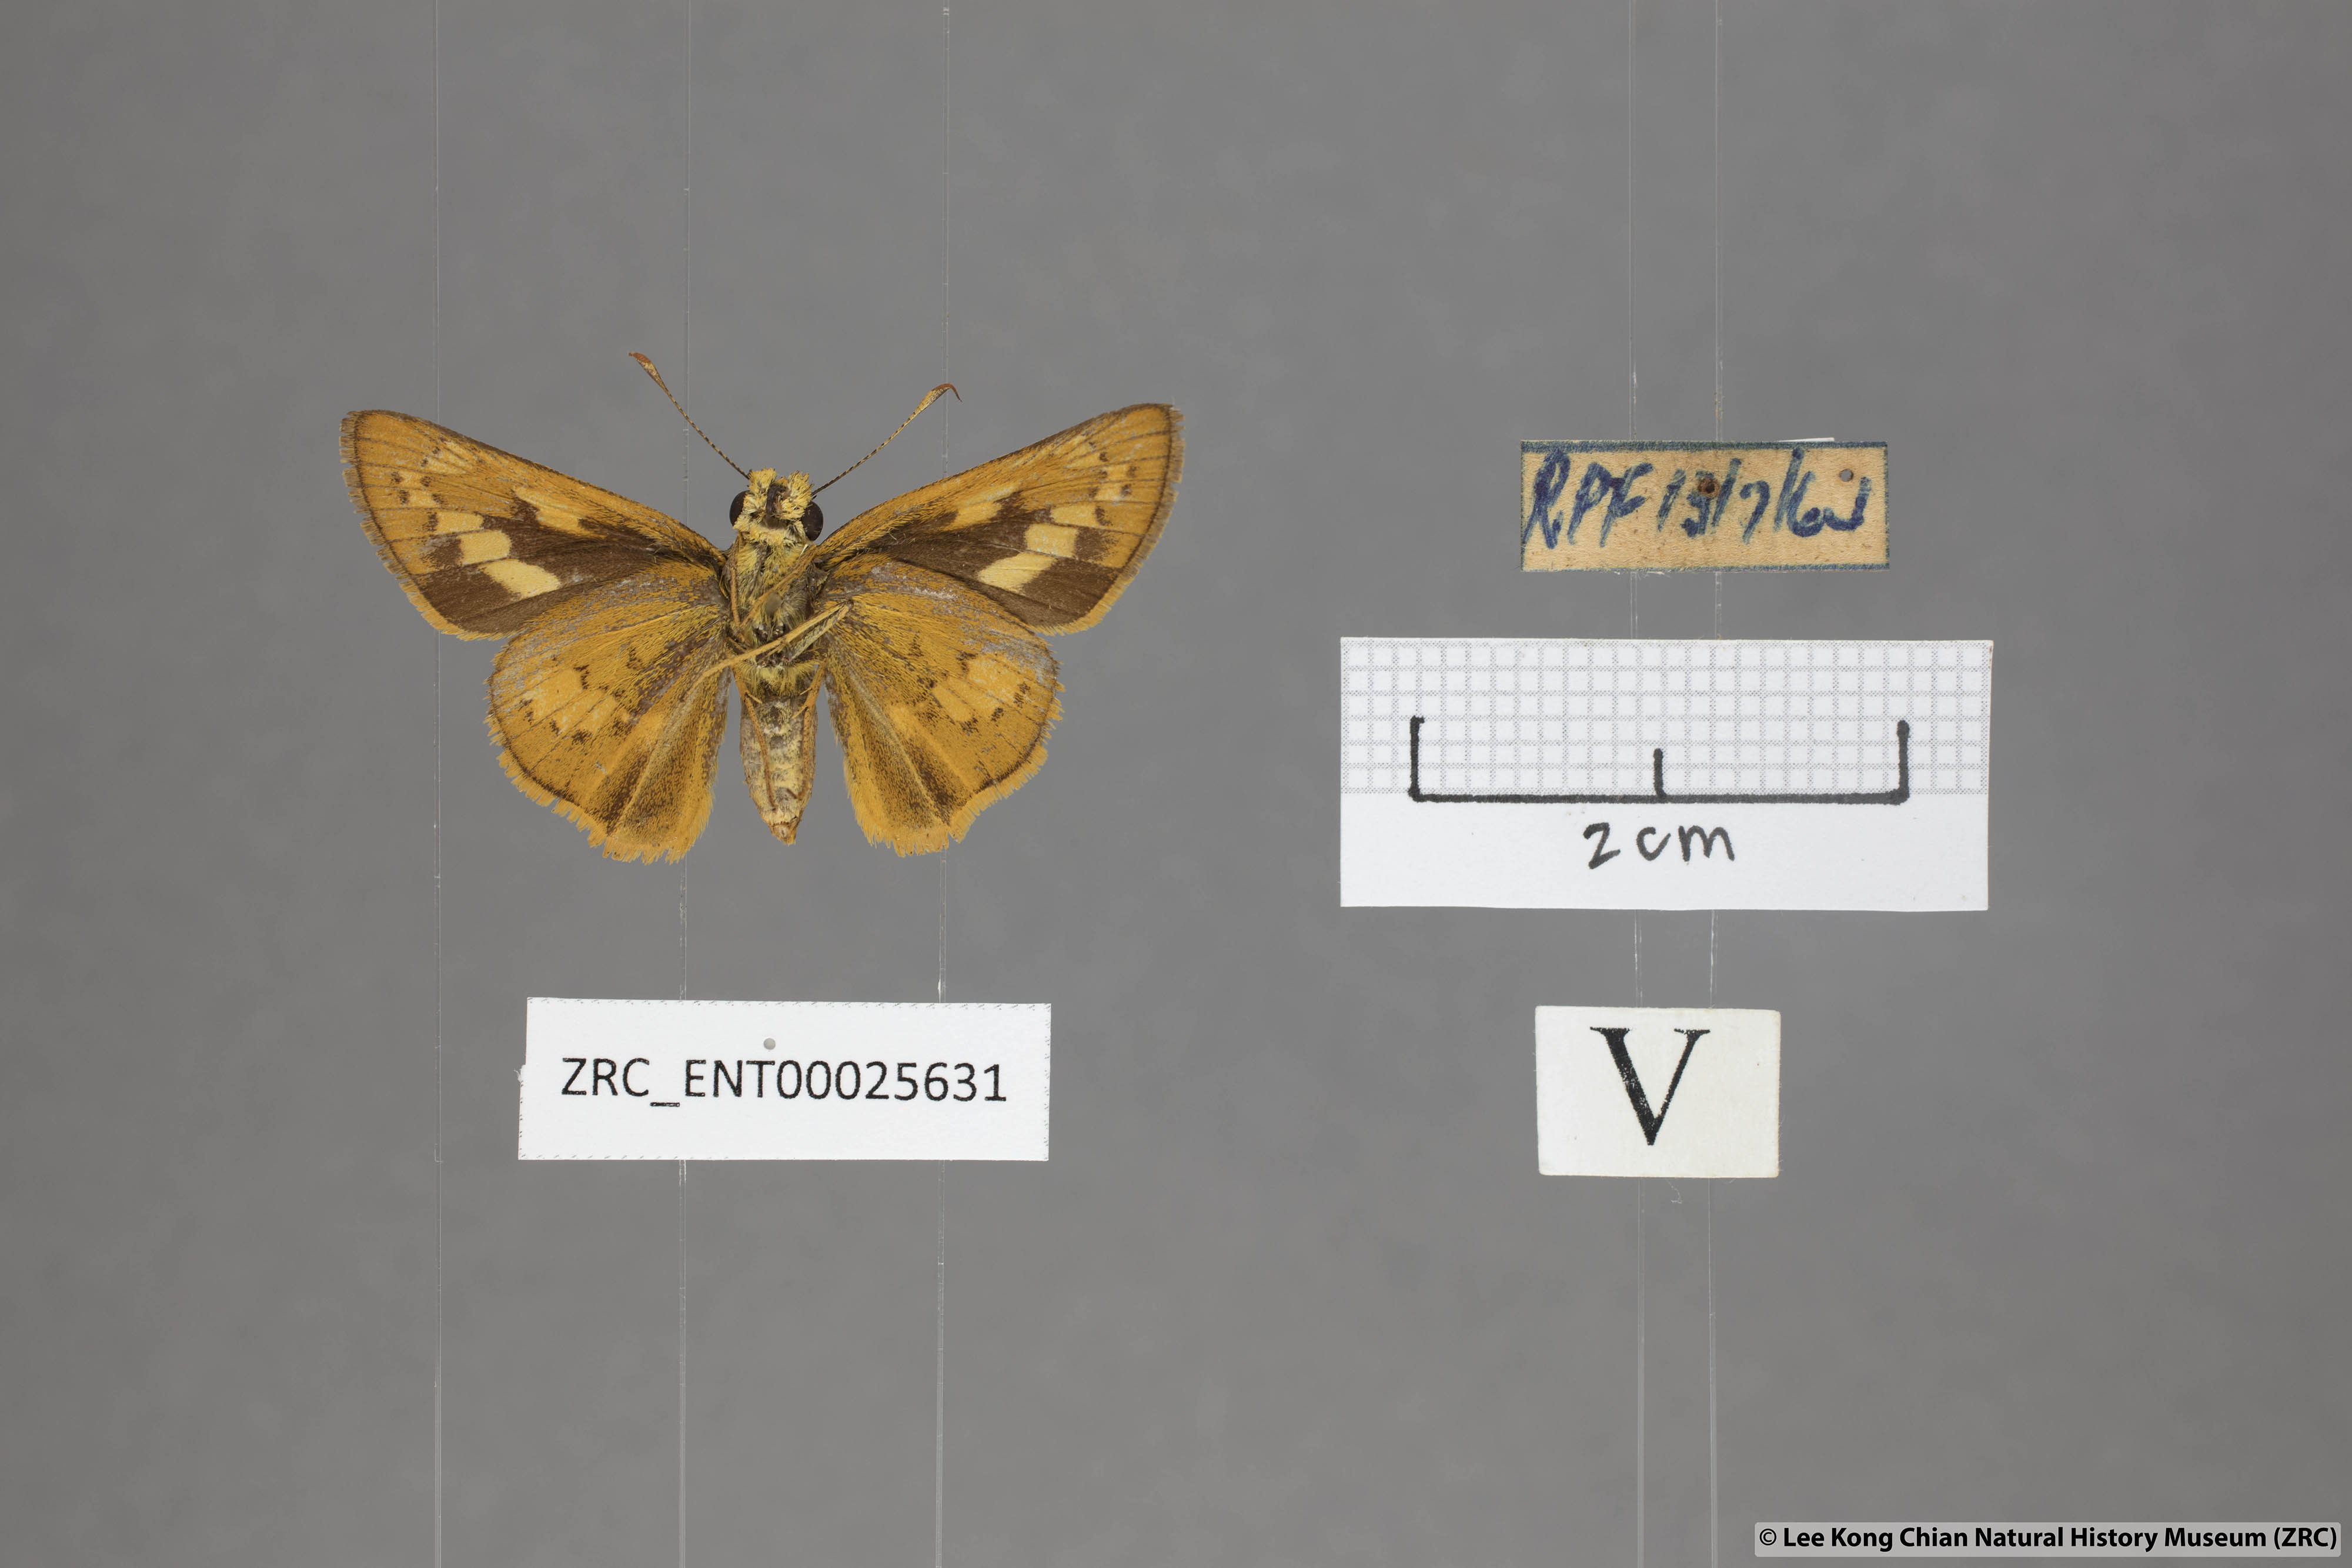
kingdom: Animalia
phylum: Arthropoda
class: Insecta
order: Lepidoptera
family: Hesperiidae
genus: Telicota
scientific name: Telicota augias
